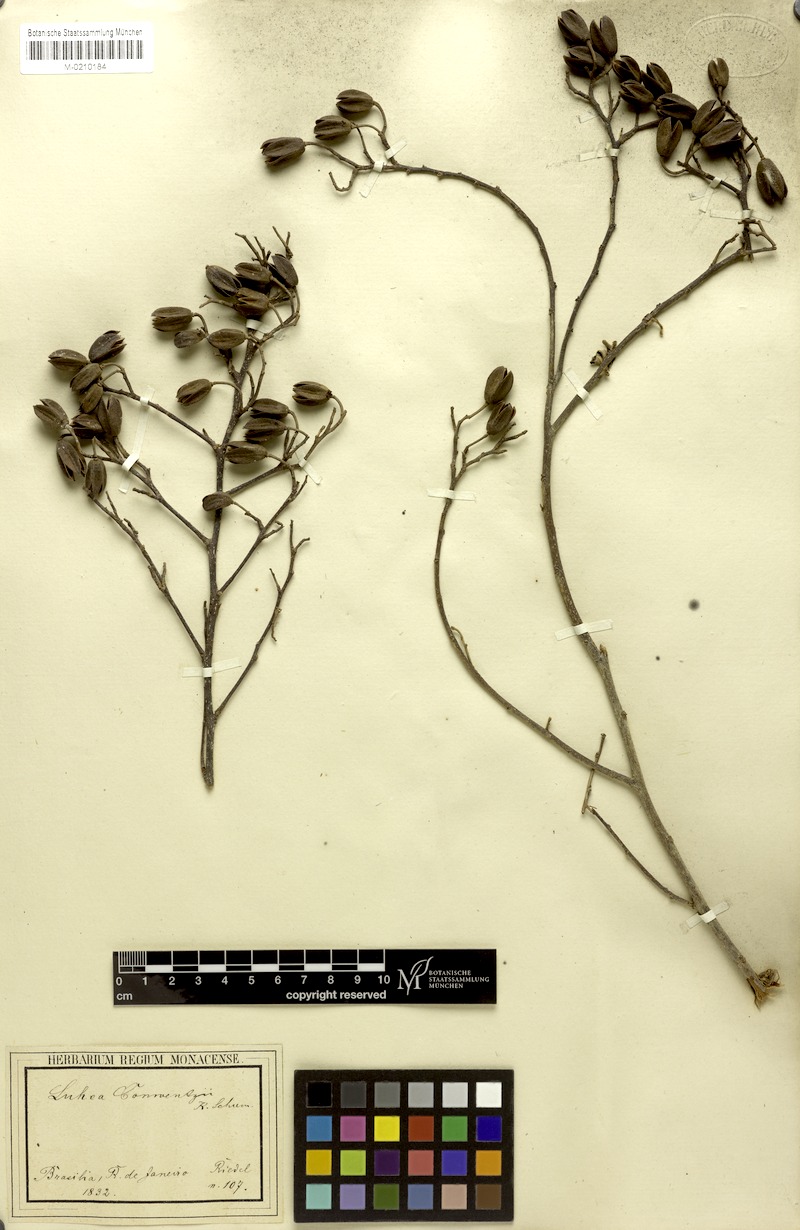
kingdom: Plantae
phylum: Tracheophyta
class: Magnoliopsida
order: Malvales
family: Malvaceae
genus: Luehea
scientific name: Luehea conwentzii
